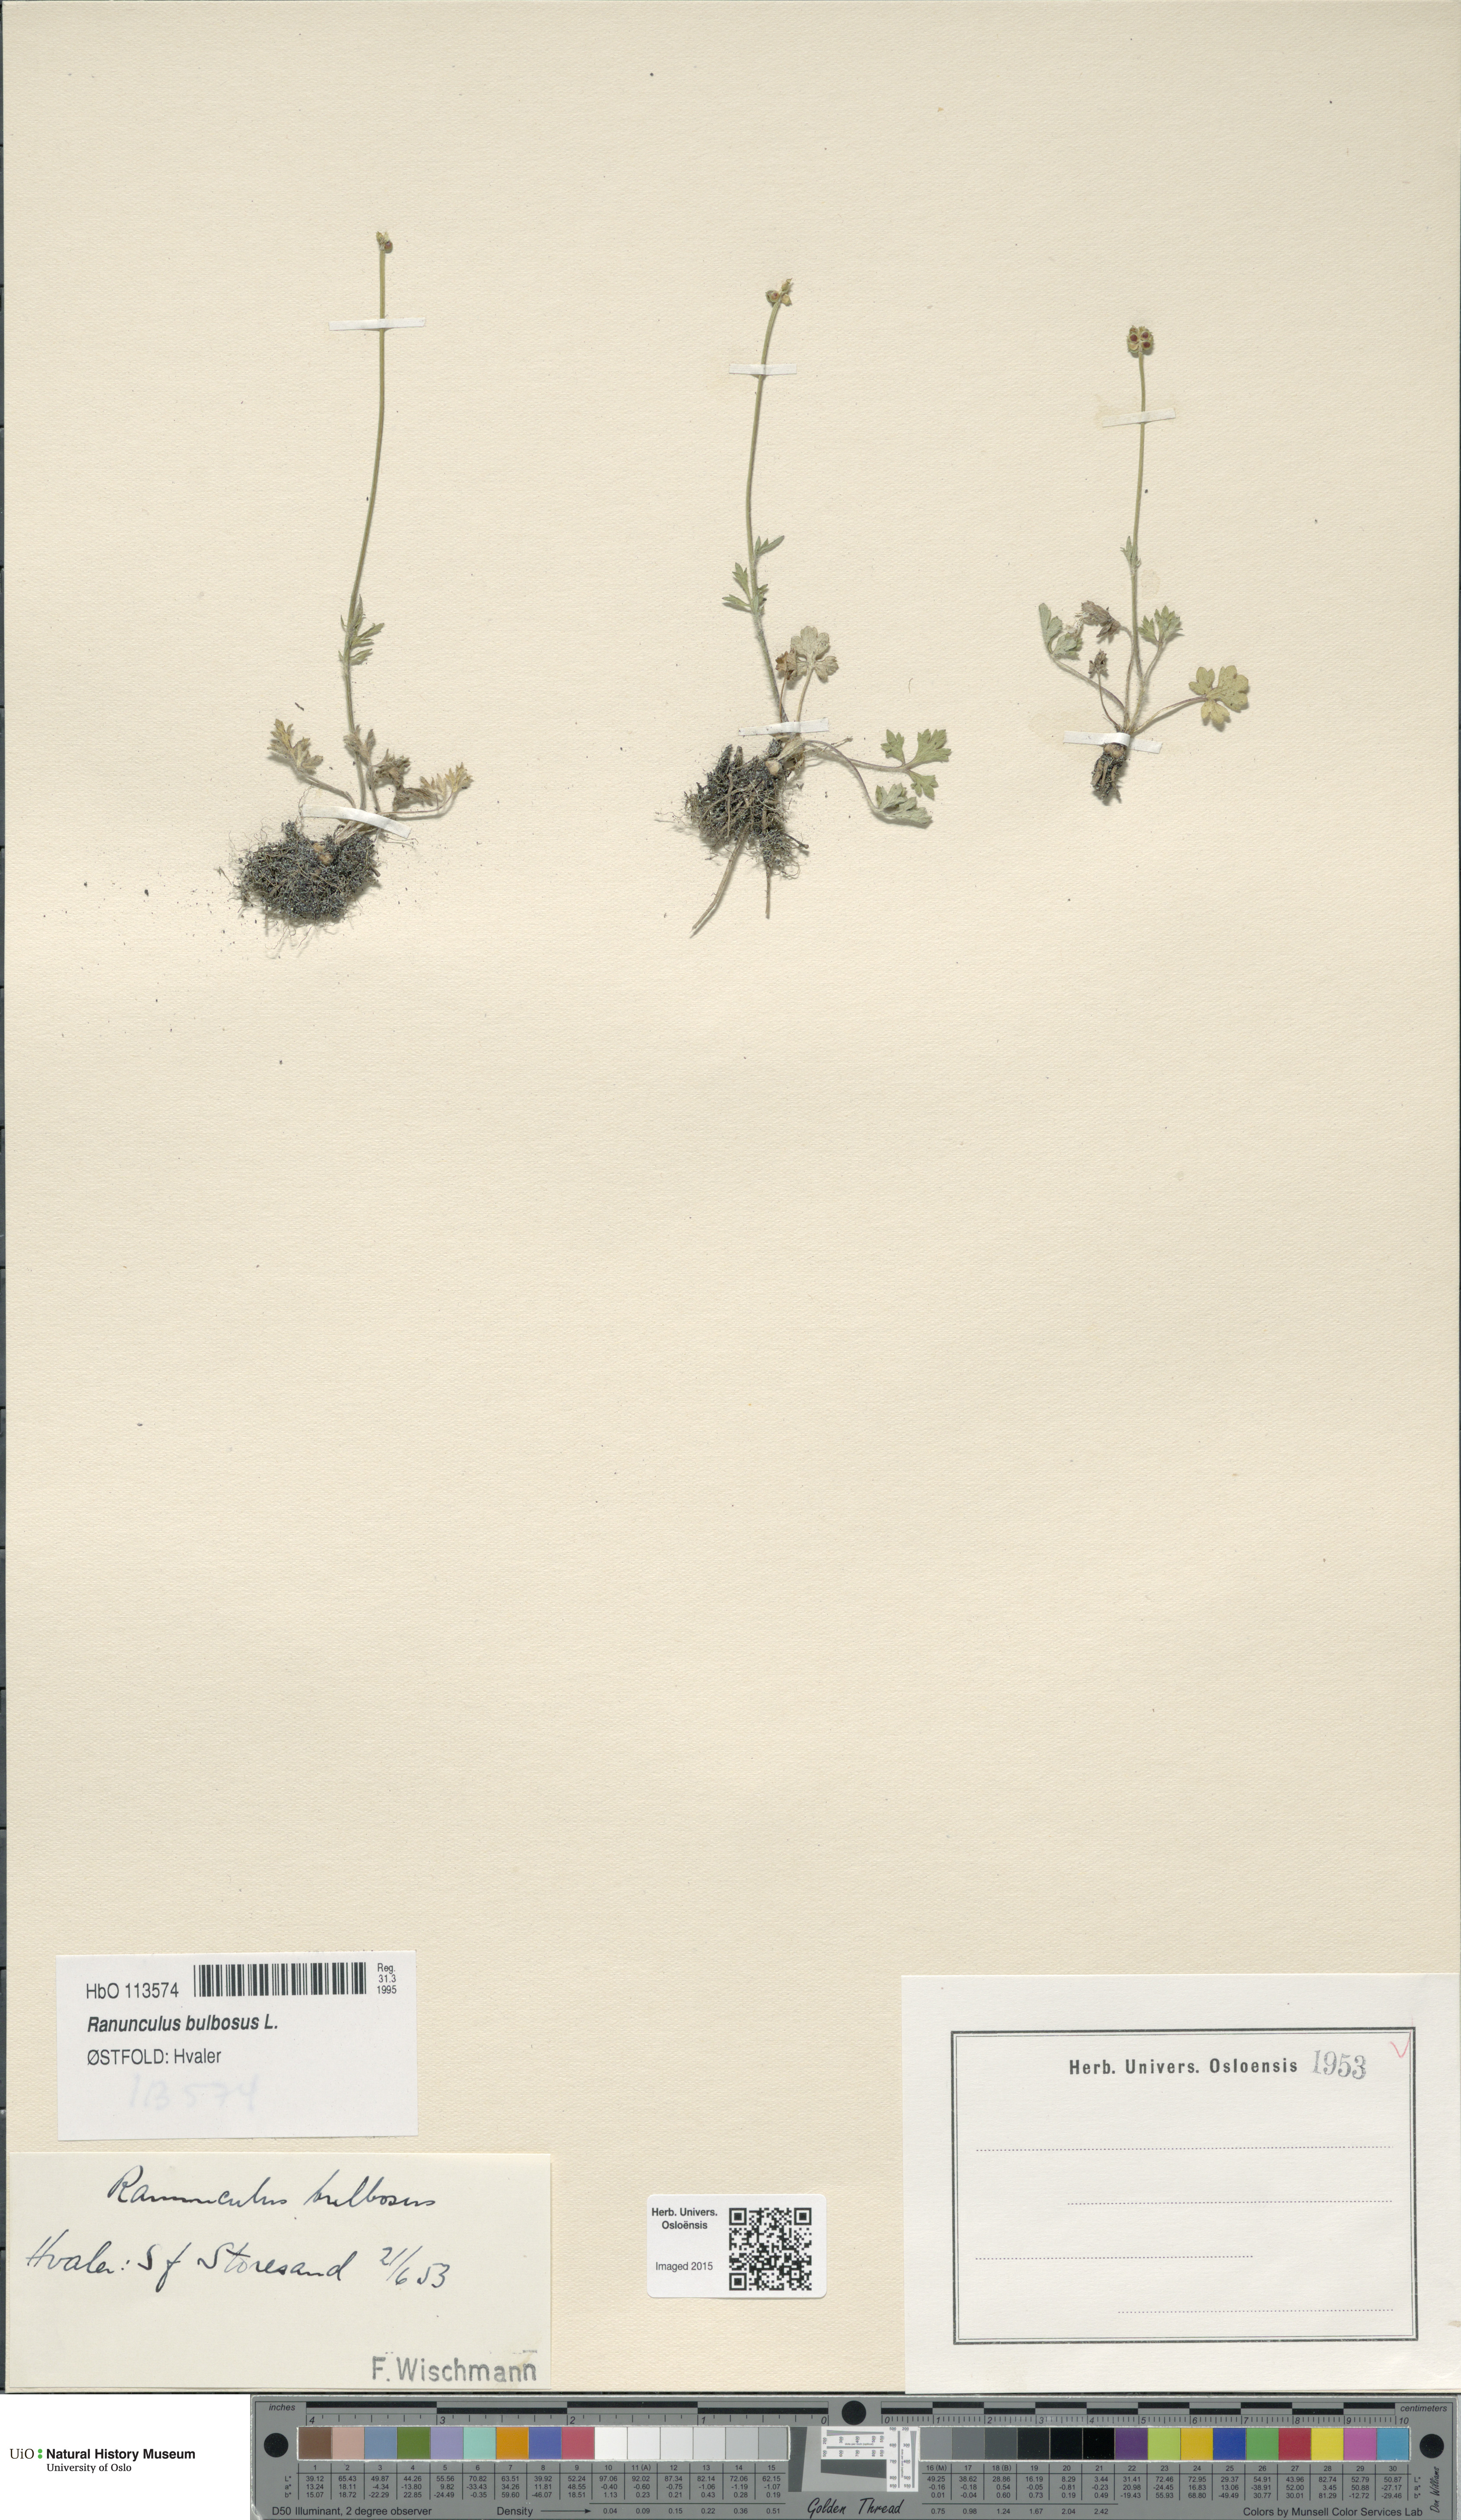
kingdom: Plantae
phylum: Tracheophyta
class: Magnoliopsida
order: Ranunculales
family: Ranunculaceae
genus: Ranunculus
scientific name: Ranunculus bulbosus
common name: Bulbous buttercup
